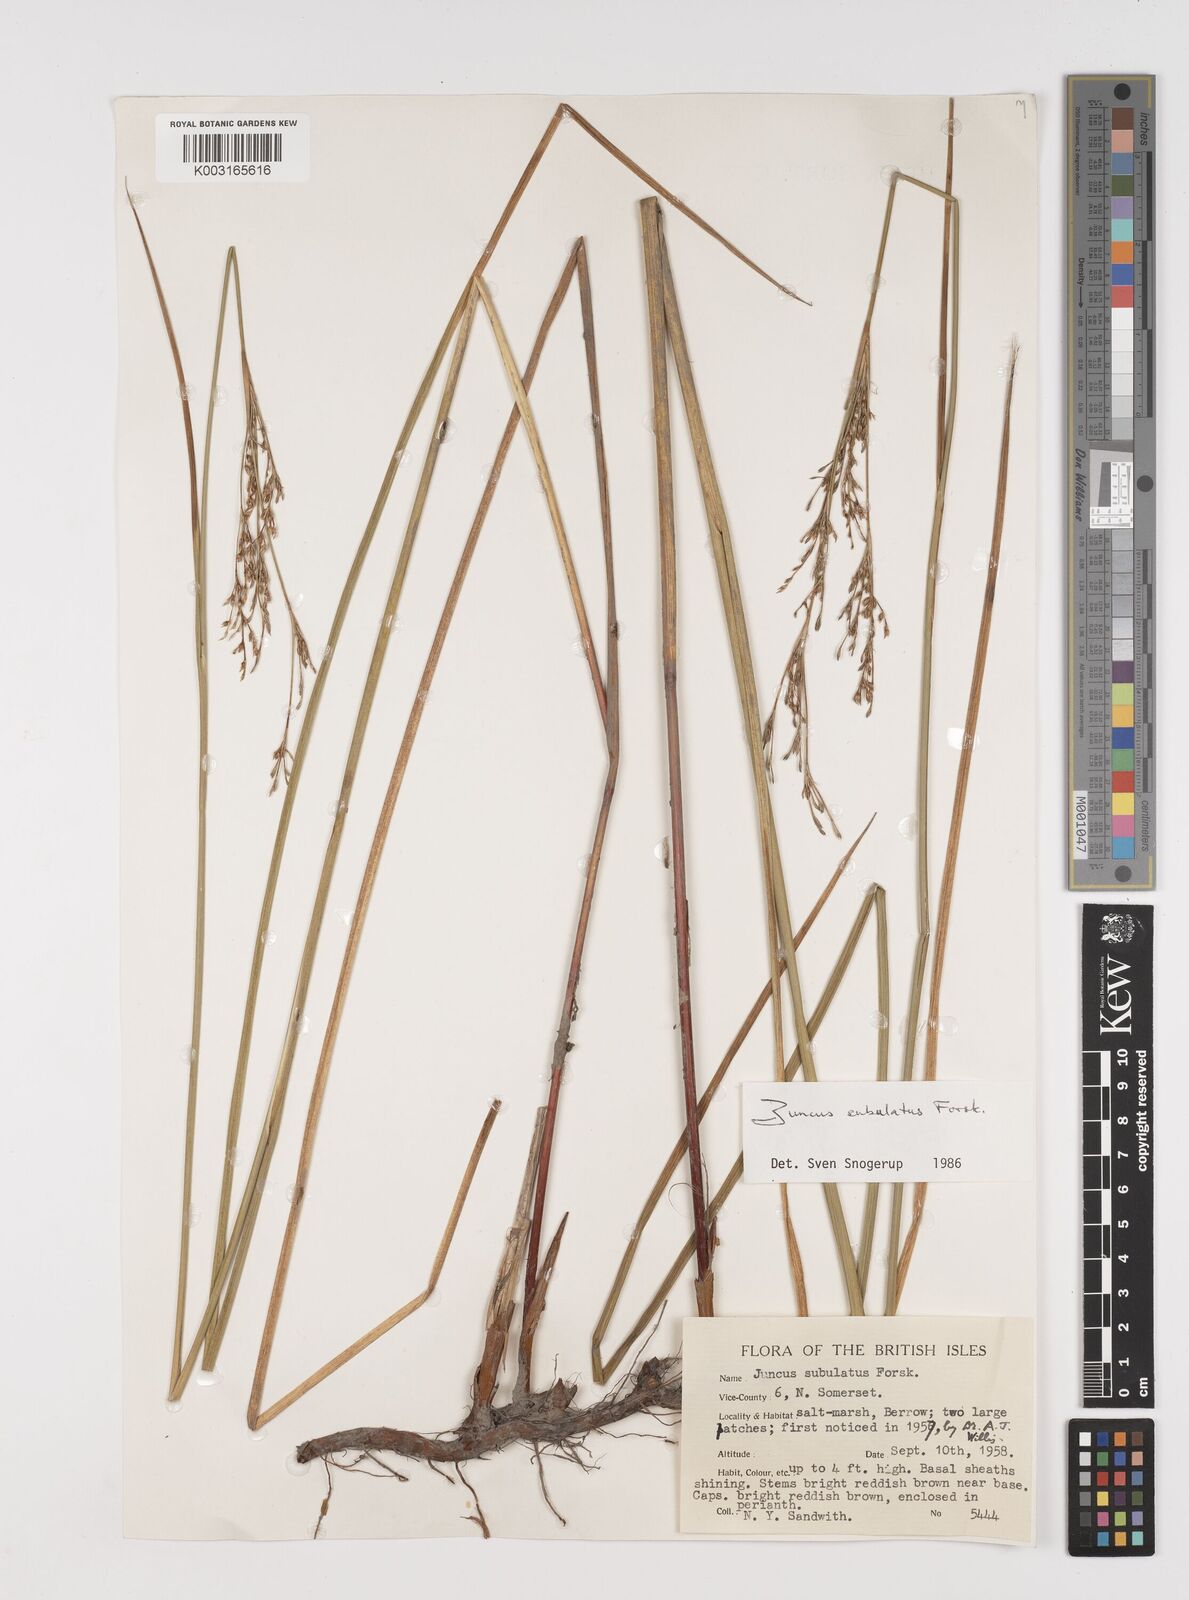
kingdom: Plantae
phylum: Tracheophyta
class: Liliopsida
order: Poales
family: Juncaceae
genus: Juncus
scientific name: Juncus subulatus
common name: Somerset rush
